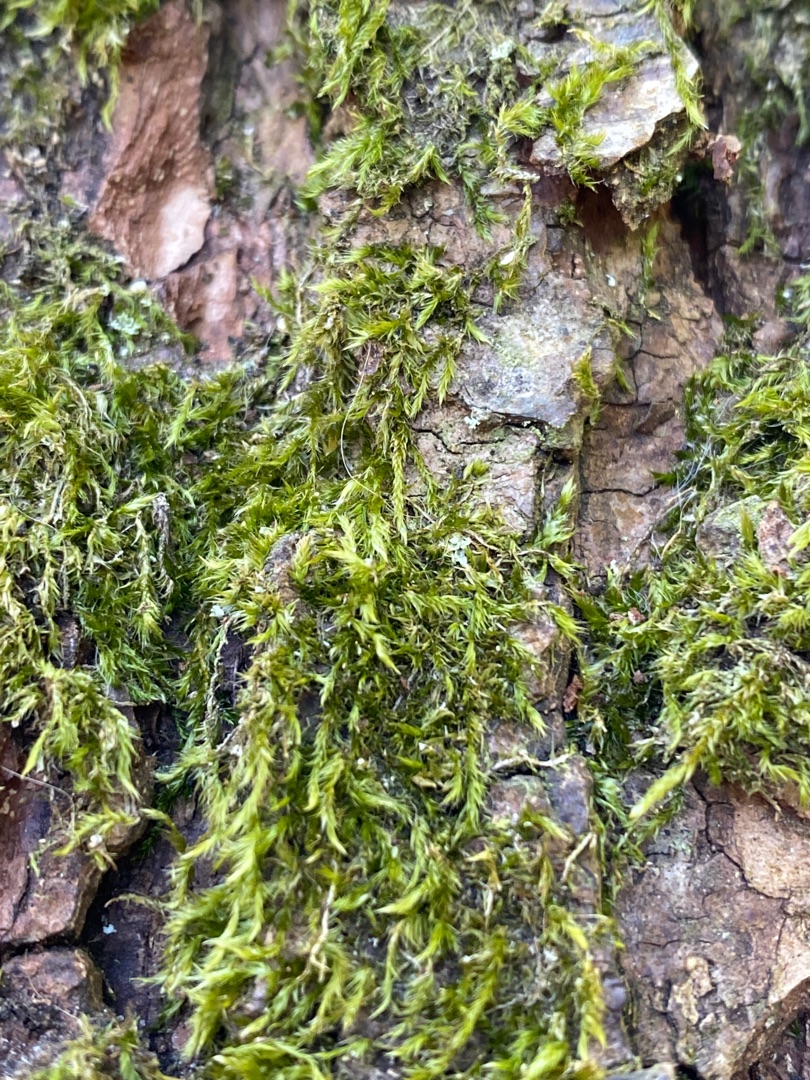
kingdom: Plantae
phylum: Bryophyta
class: Bryopsida
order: Hypnales
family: Hypnaceae
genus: Hypnum
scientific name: Hypnum
